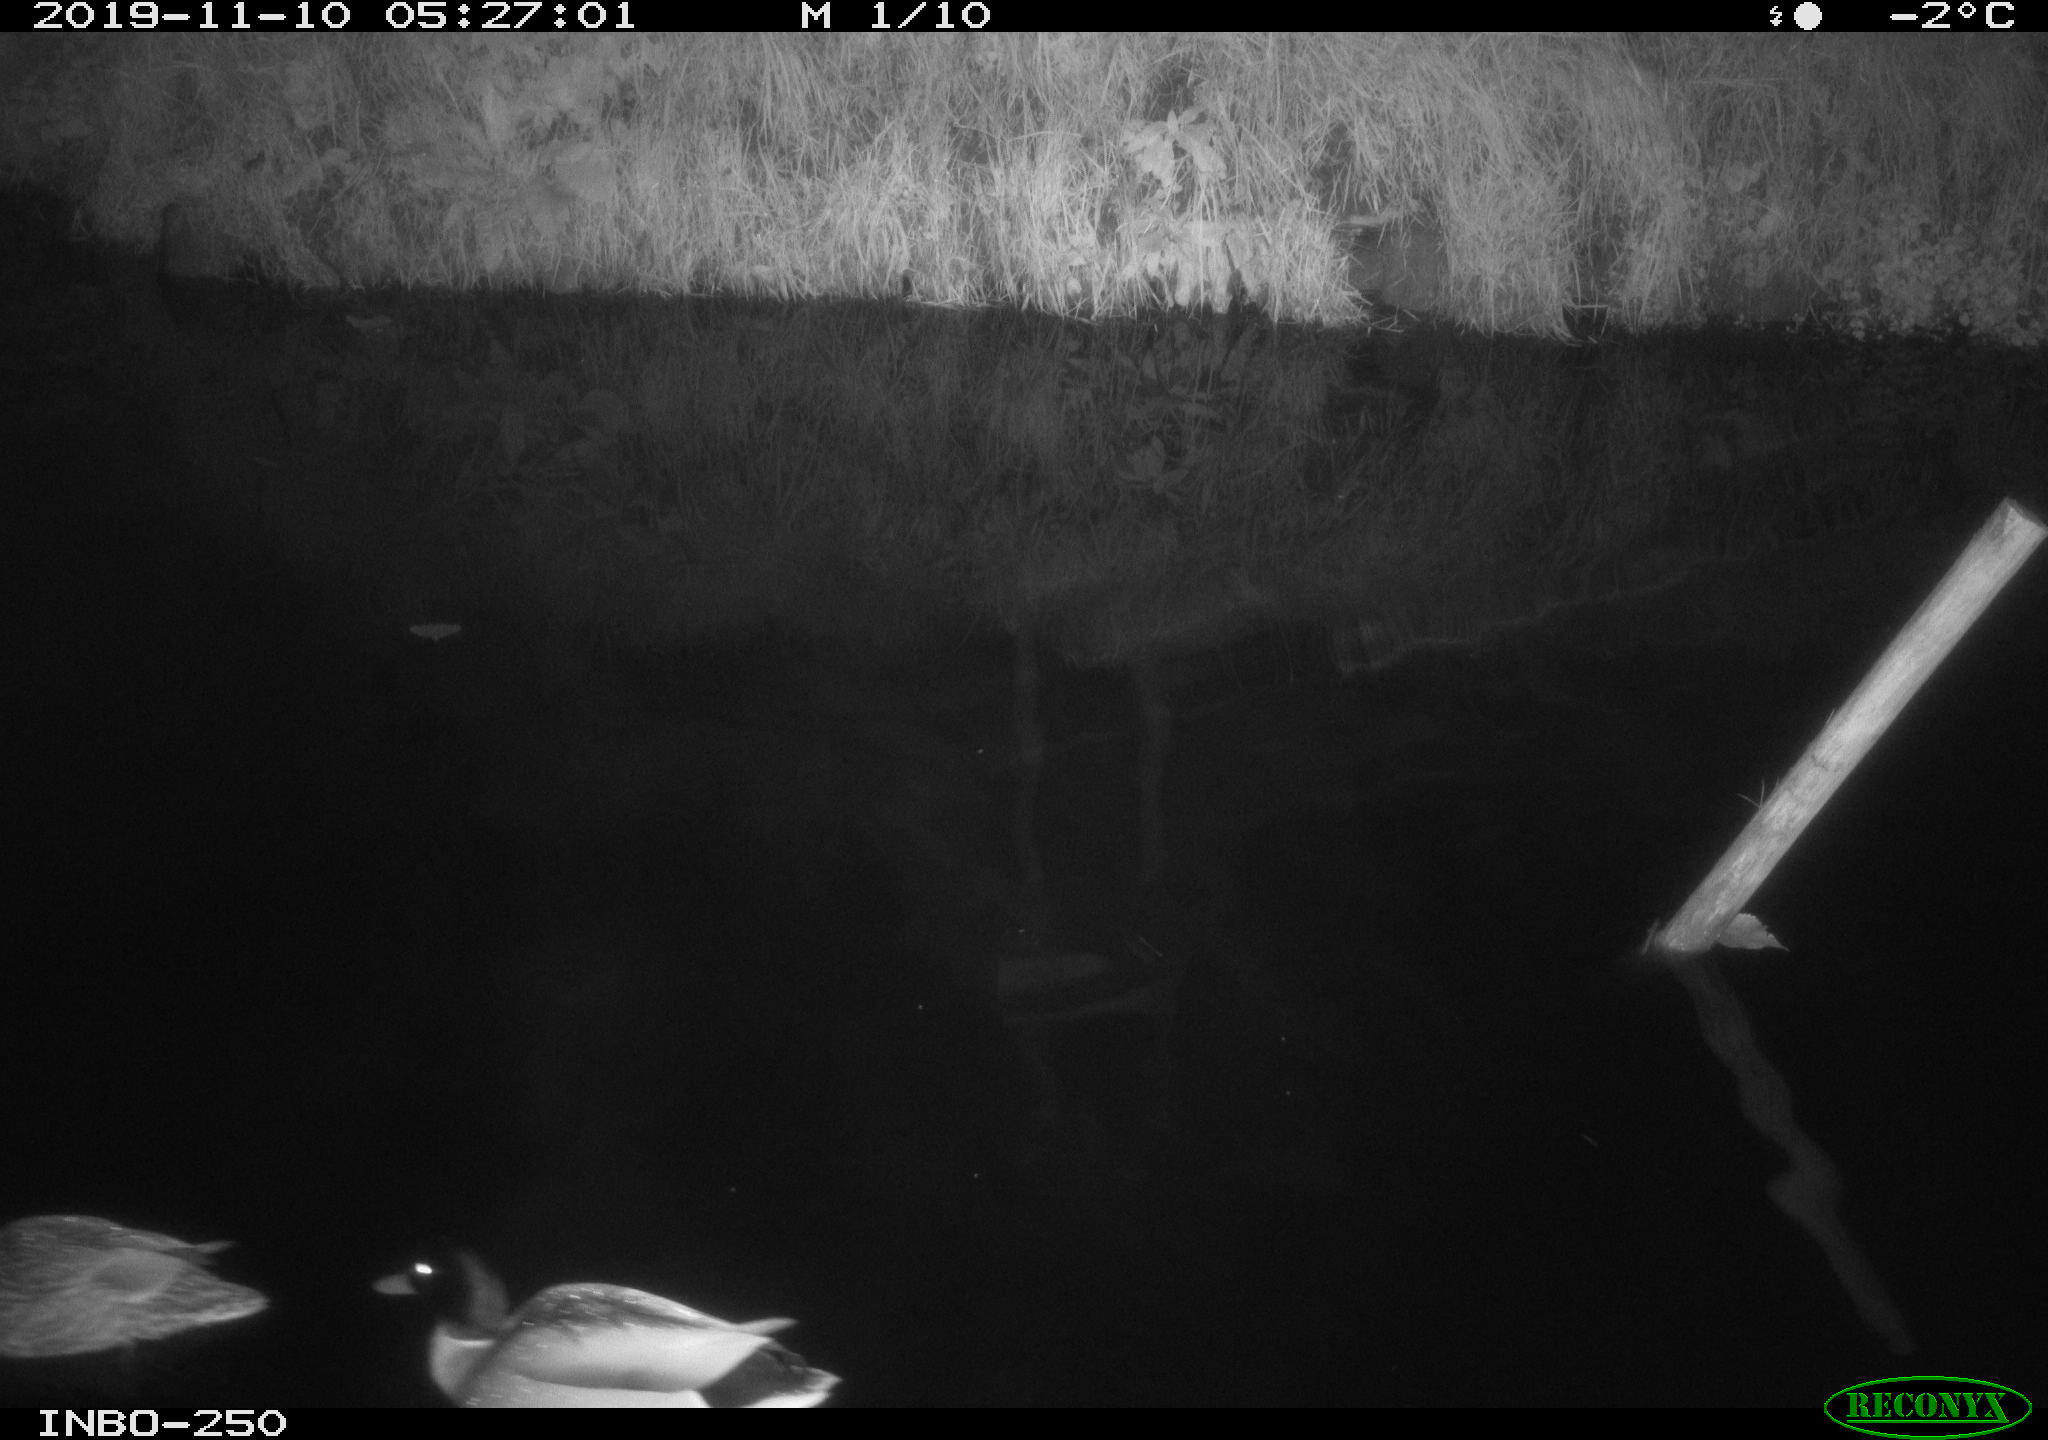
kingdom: Animalia
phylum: Chordata
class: Aves
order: Anseriformes
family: Anatidae
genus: Anas
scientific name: Anas platyrhynchos
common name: Mallard
